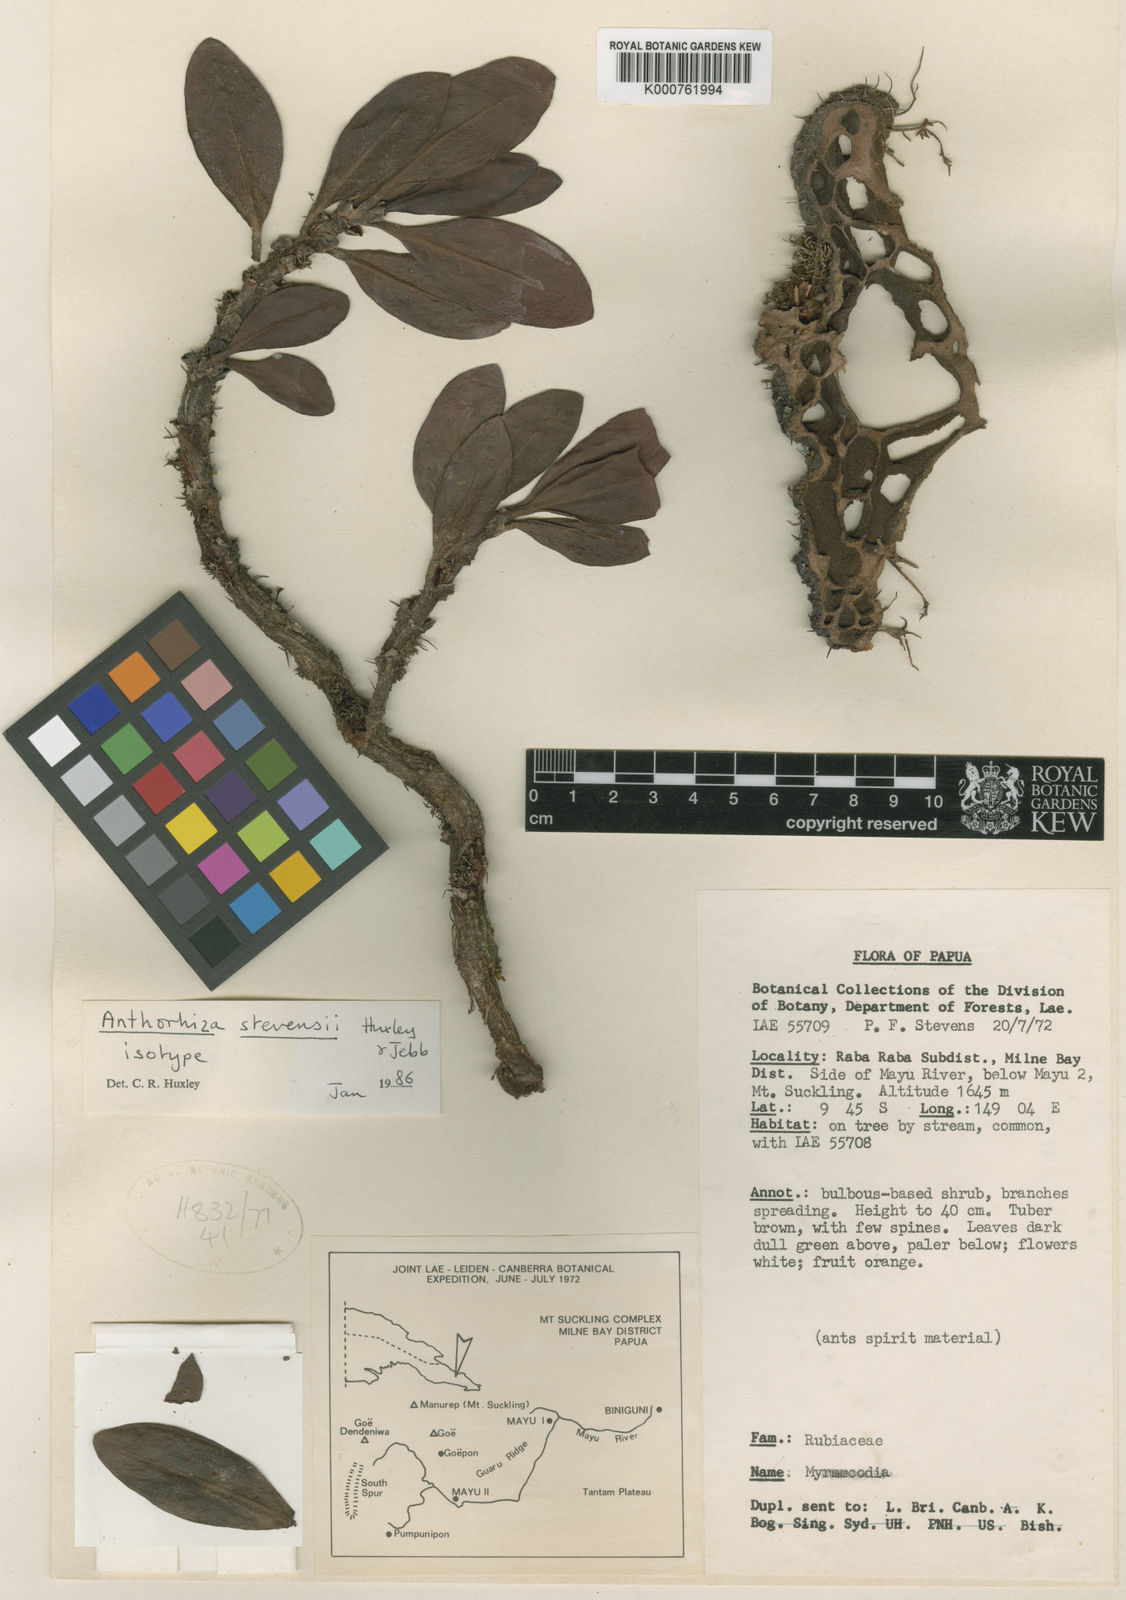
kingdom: Plantae
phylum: Tracheophyta
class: Magnoliopsida
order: Gentianales
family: Rubiaceae
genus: Anthorrhiza
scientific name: Anthorrhiza stevensii
